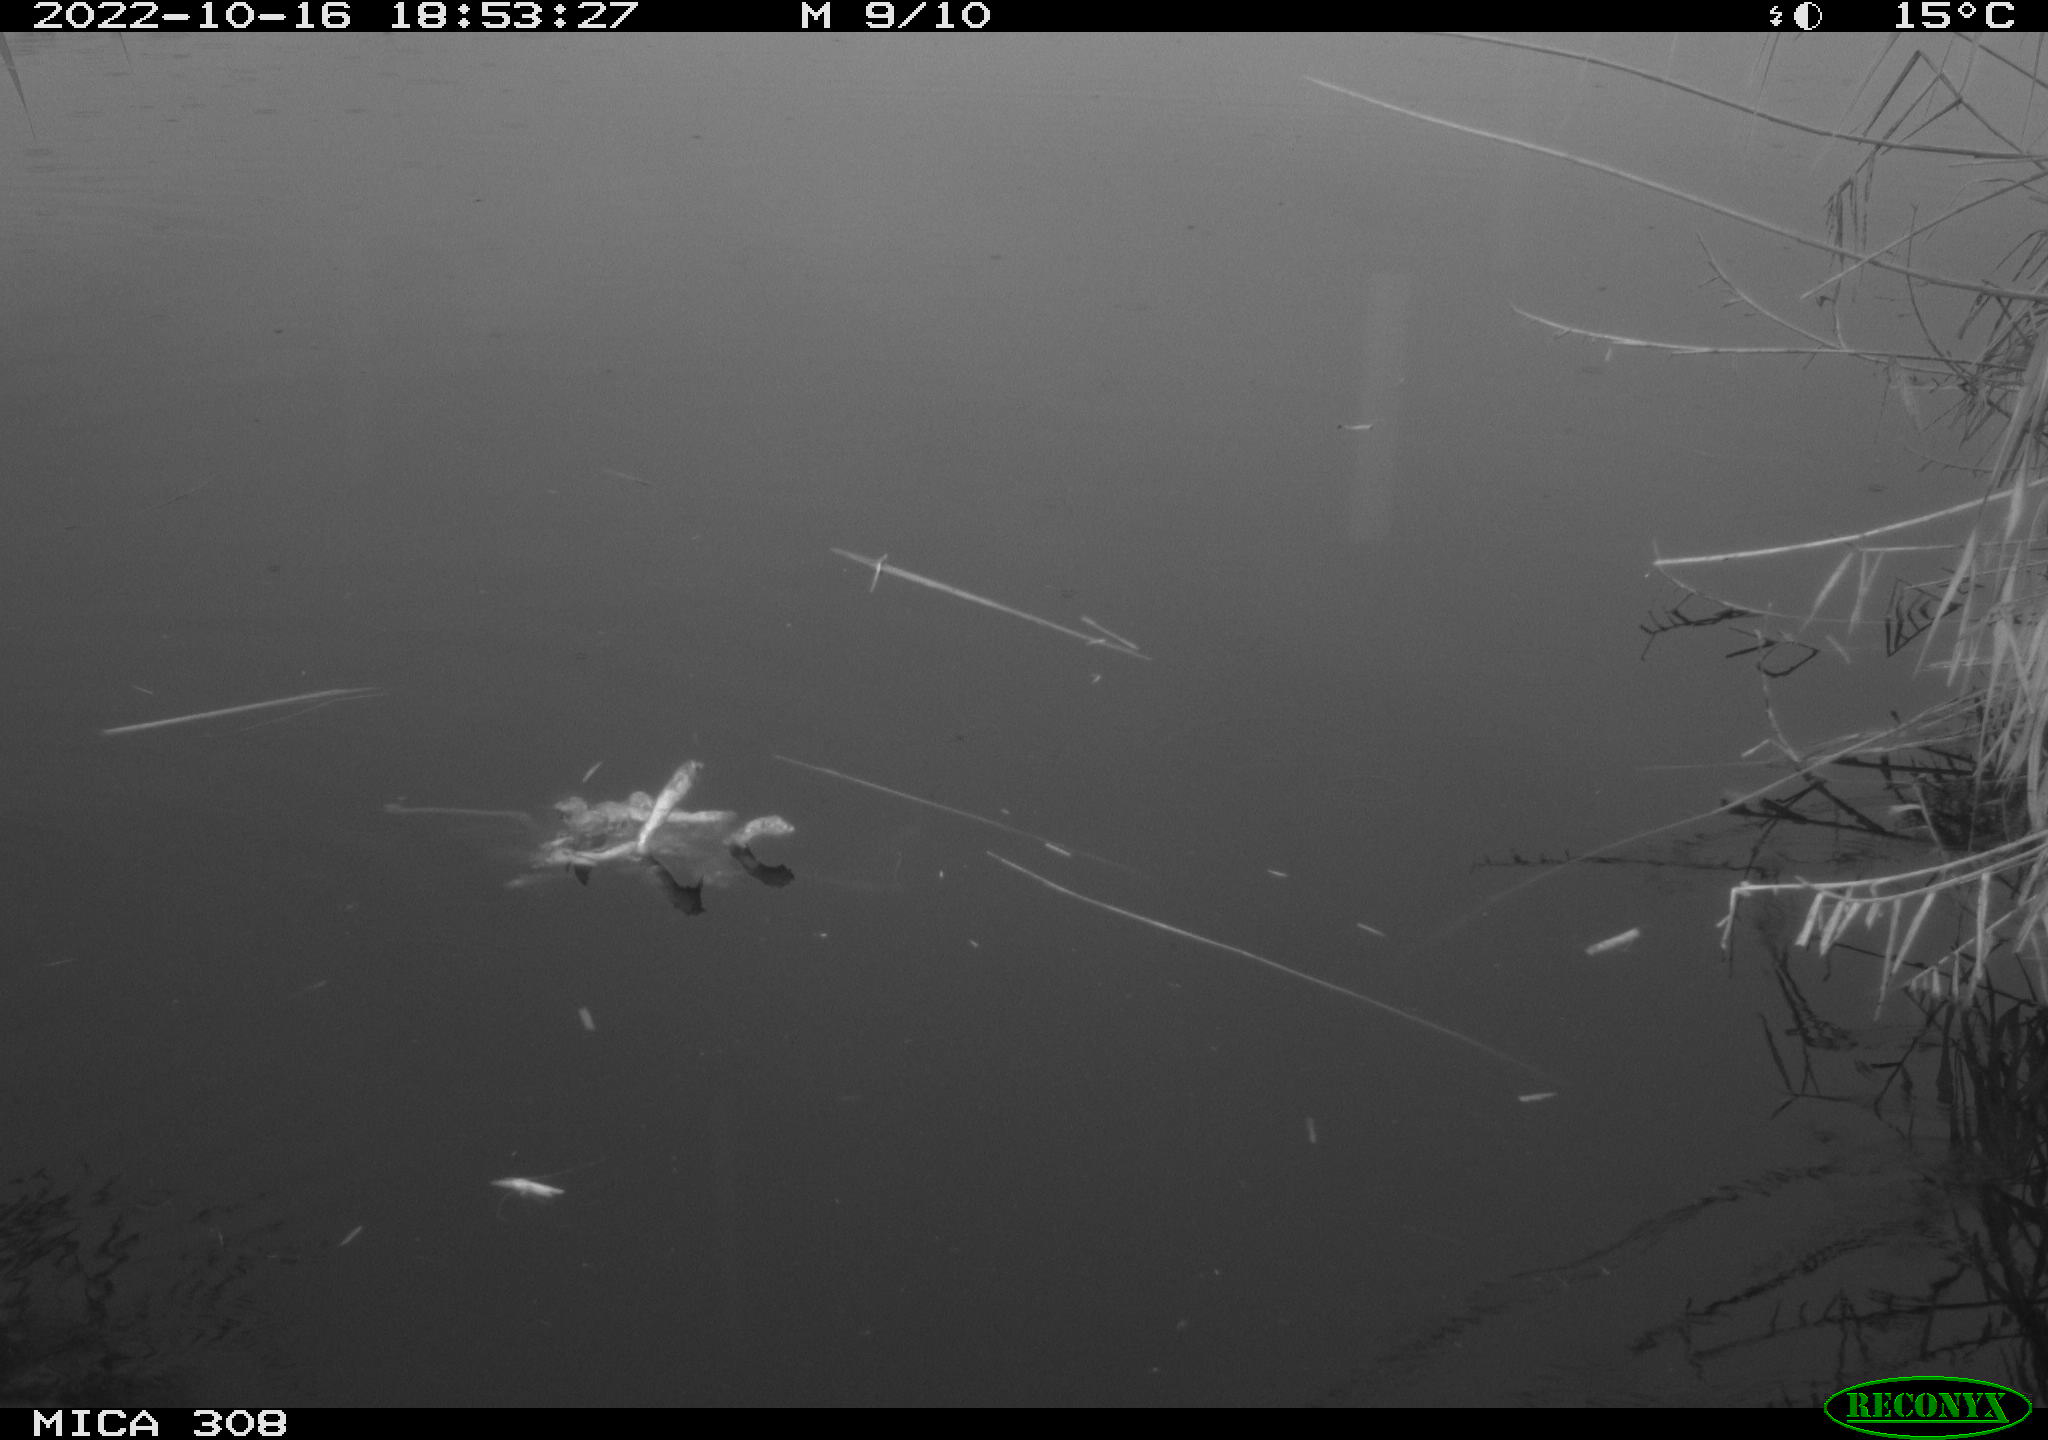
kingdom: Animalia
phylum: Chordata
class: Aves
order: Gruiformes
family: Rallidae
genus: Gallinula
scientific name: Gallinula chloropus
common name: Common moorhen
